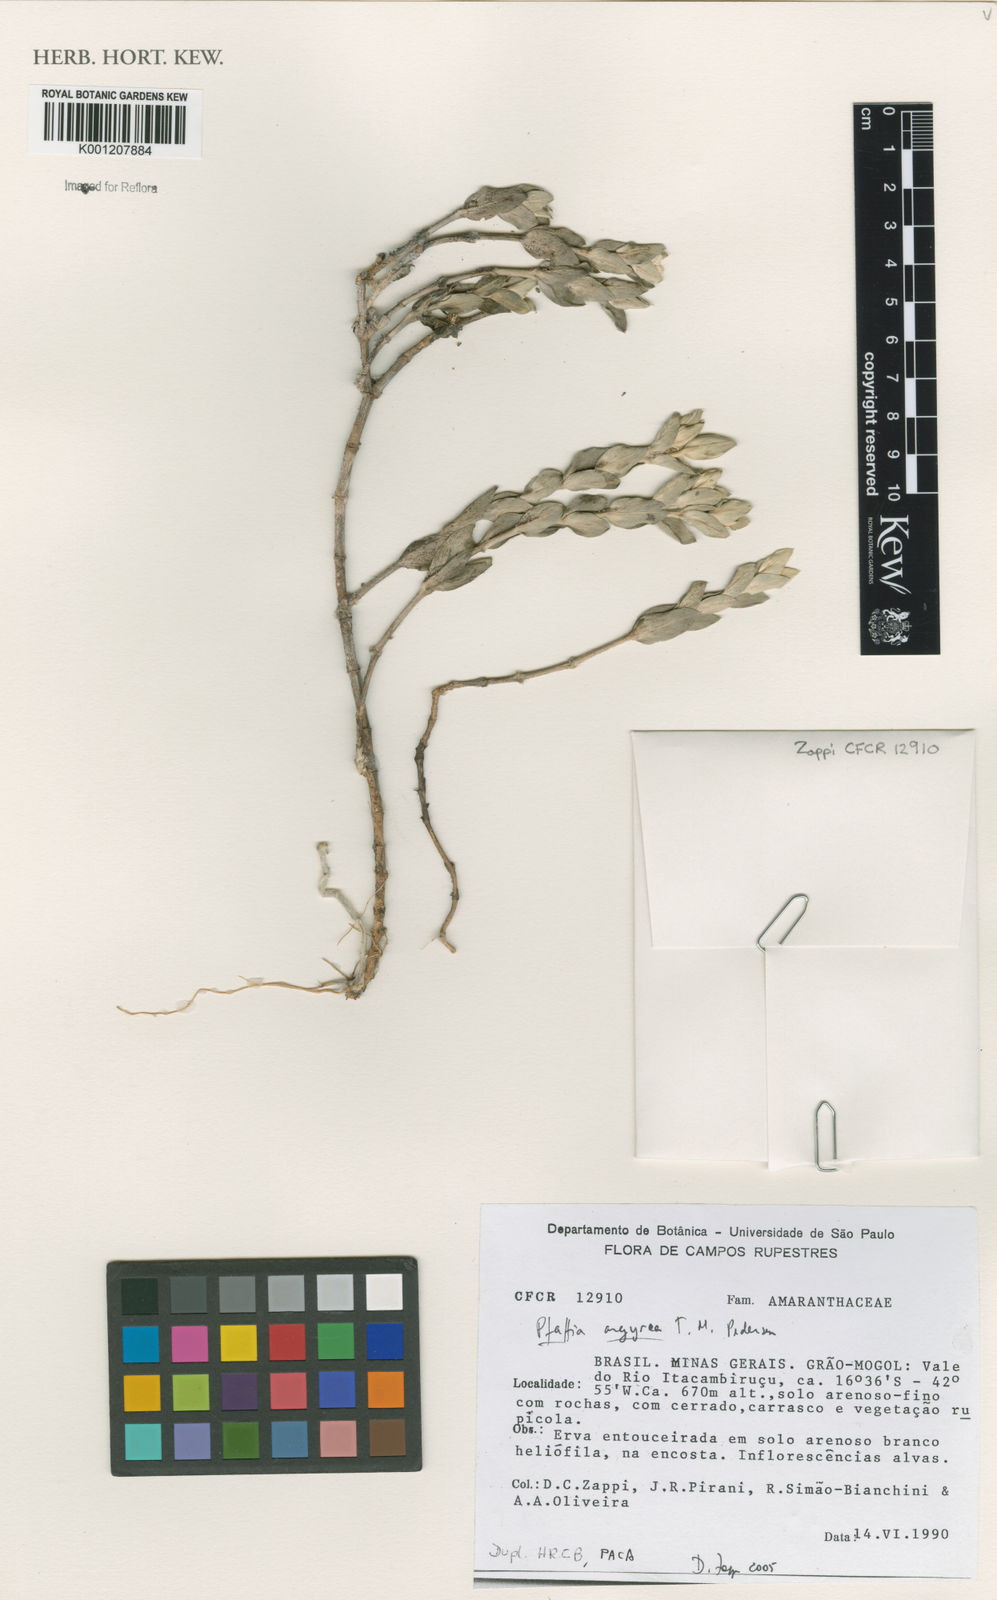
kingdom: Plantae
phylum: Tracheophyta
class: Magnoliopsida
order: Caryophyllales
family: Amaranthaceae
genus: Pfaffia
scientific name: Pfaffia argyrea
